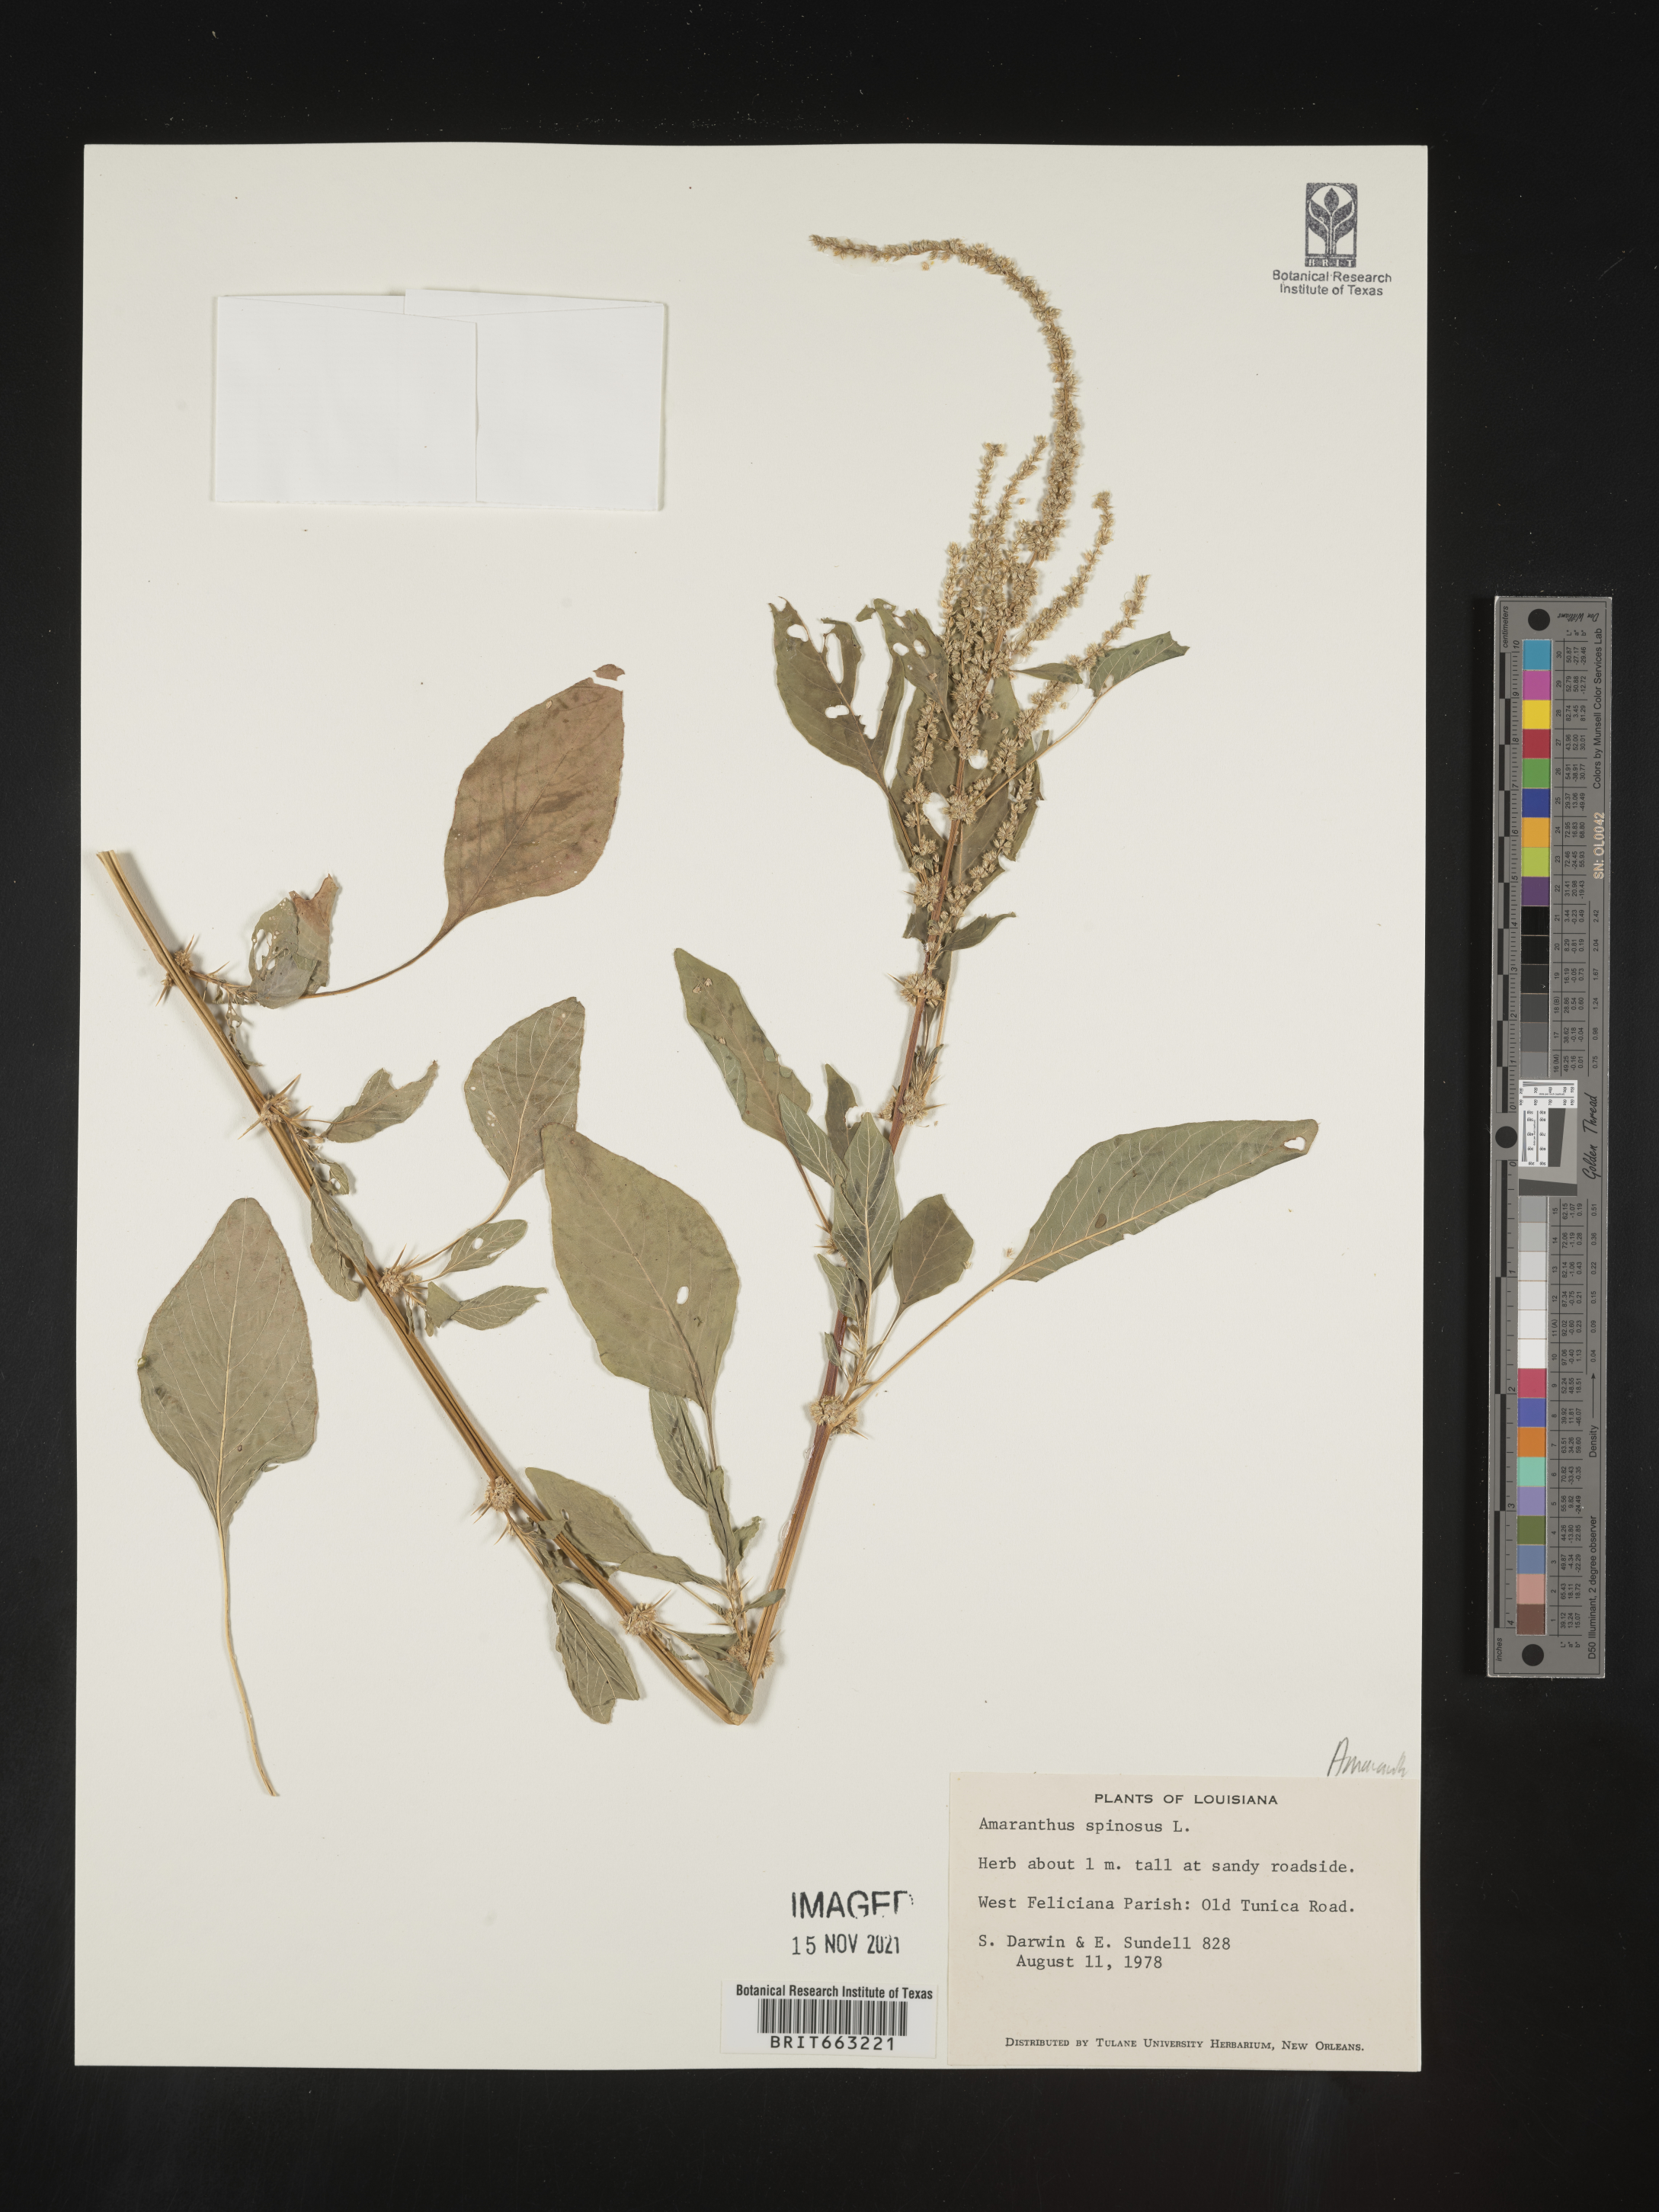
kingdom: Plantae
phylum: Tracheophyta
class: Magnoliopsida
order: Caryophyllales
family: Amaranthaceae
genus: Amaranthus
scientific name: Amaranthus spinosus
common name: Spiny amaranth
